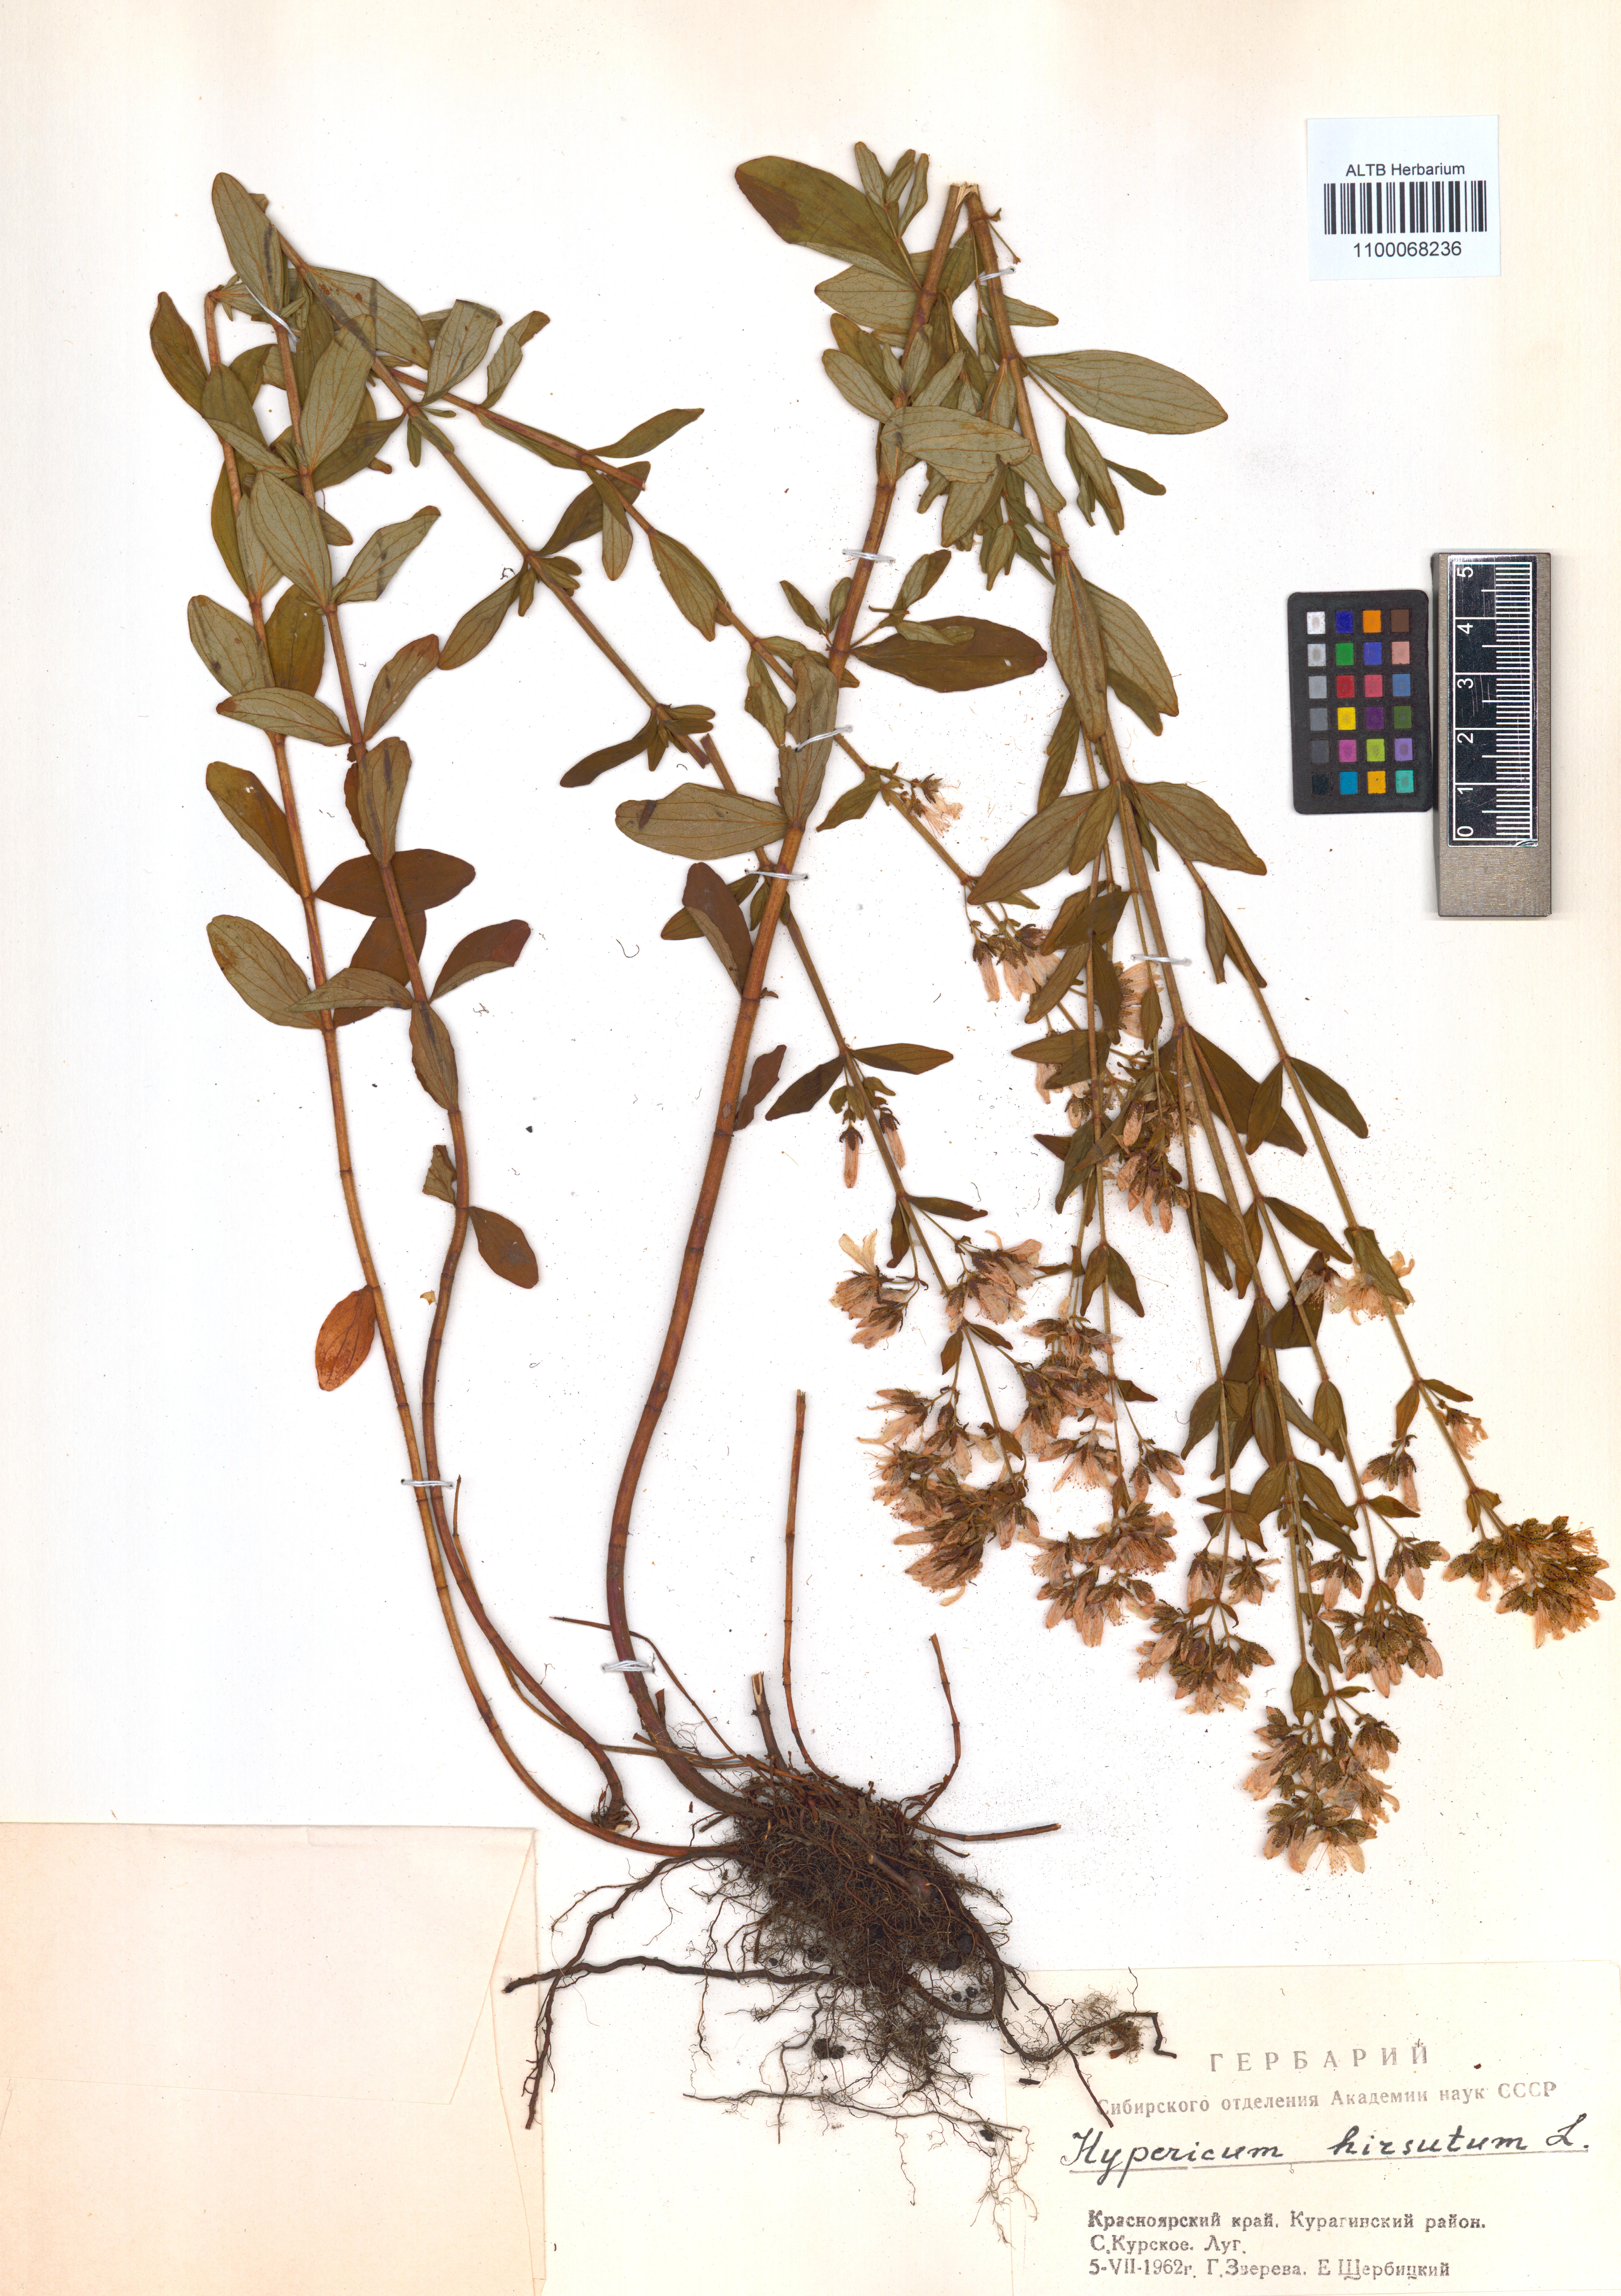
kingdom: Plantae
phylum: Tracheophyta
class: Magnoliopsida
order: Malpighiales
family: Hypericaceae
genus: Hypericum
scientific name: Hypericum hirsutum
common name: Hairy st. john's-wort
